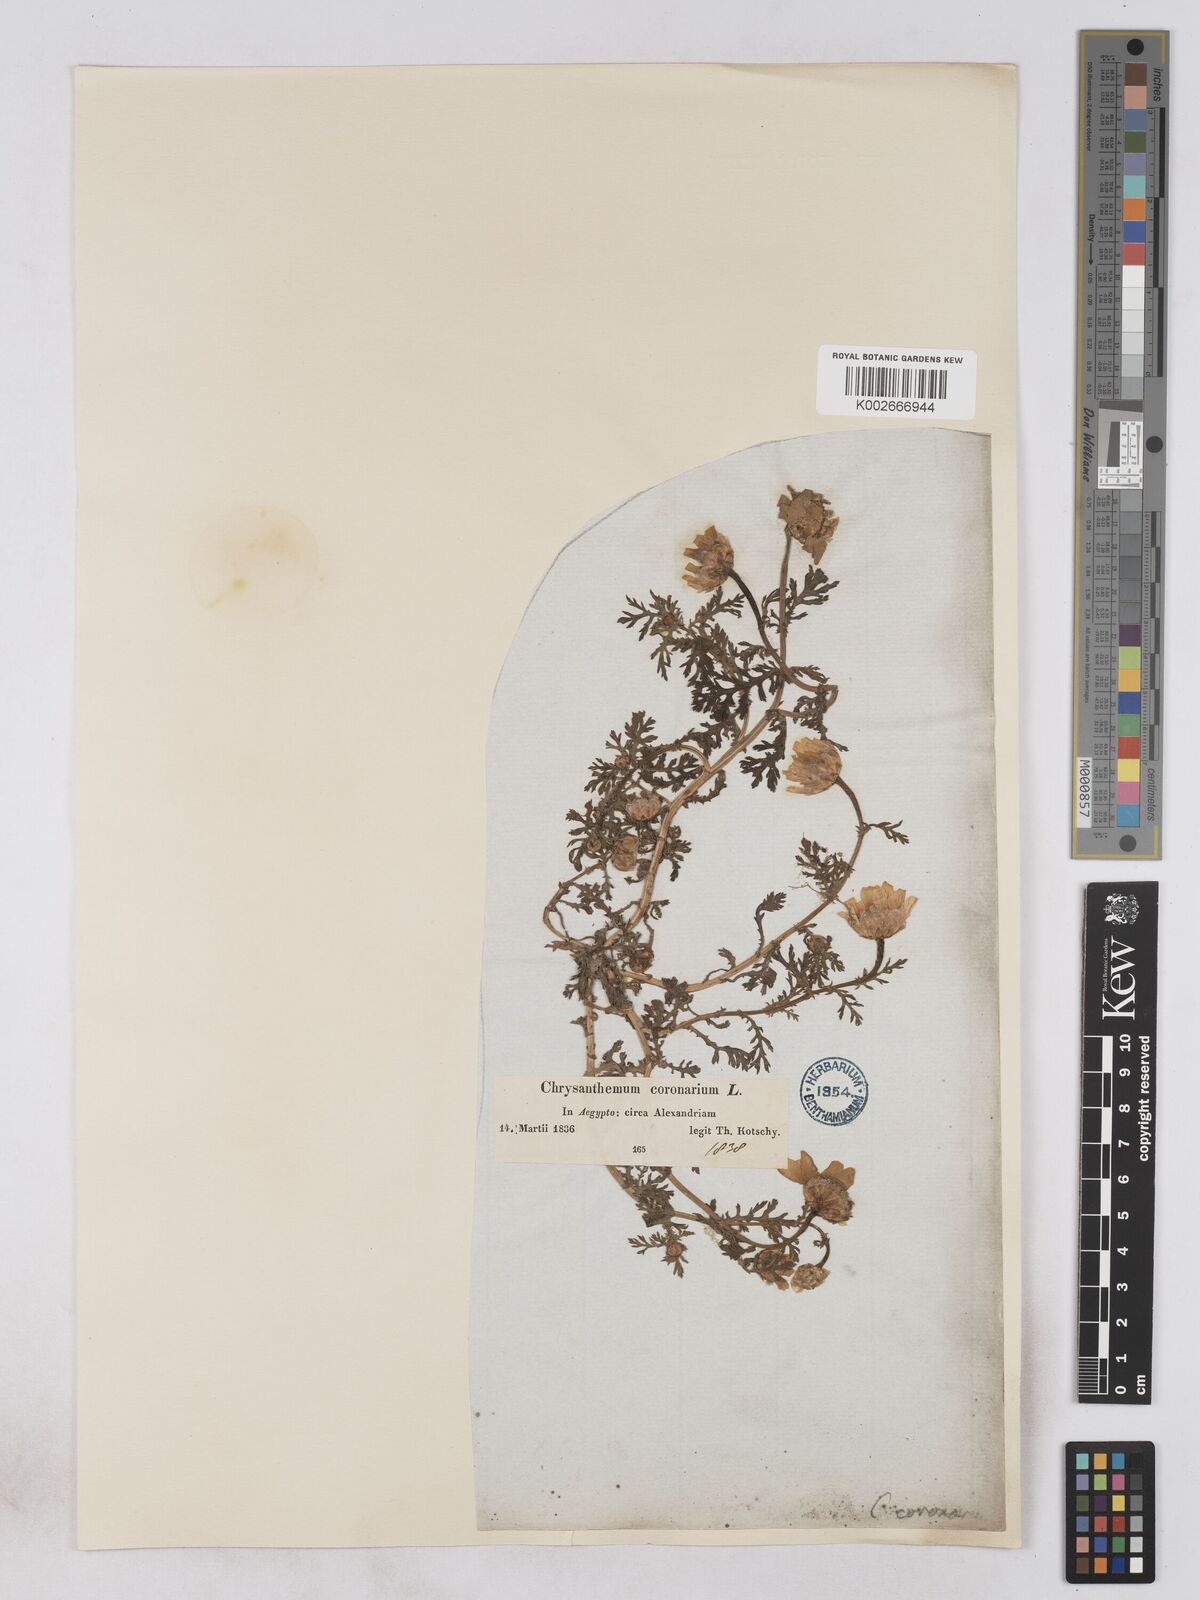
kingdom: Plantae
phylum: Tracheophyta
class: Magnoliopsida
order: Asterales
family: Asteraceae
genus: Glebionis
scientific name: Glebionis coronaria
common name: Crowndaisy
